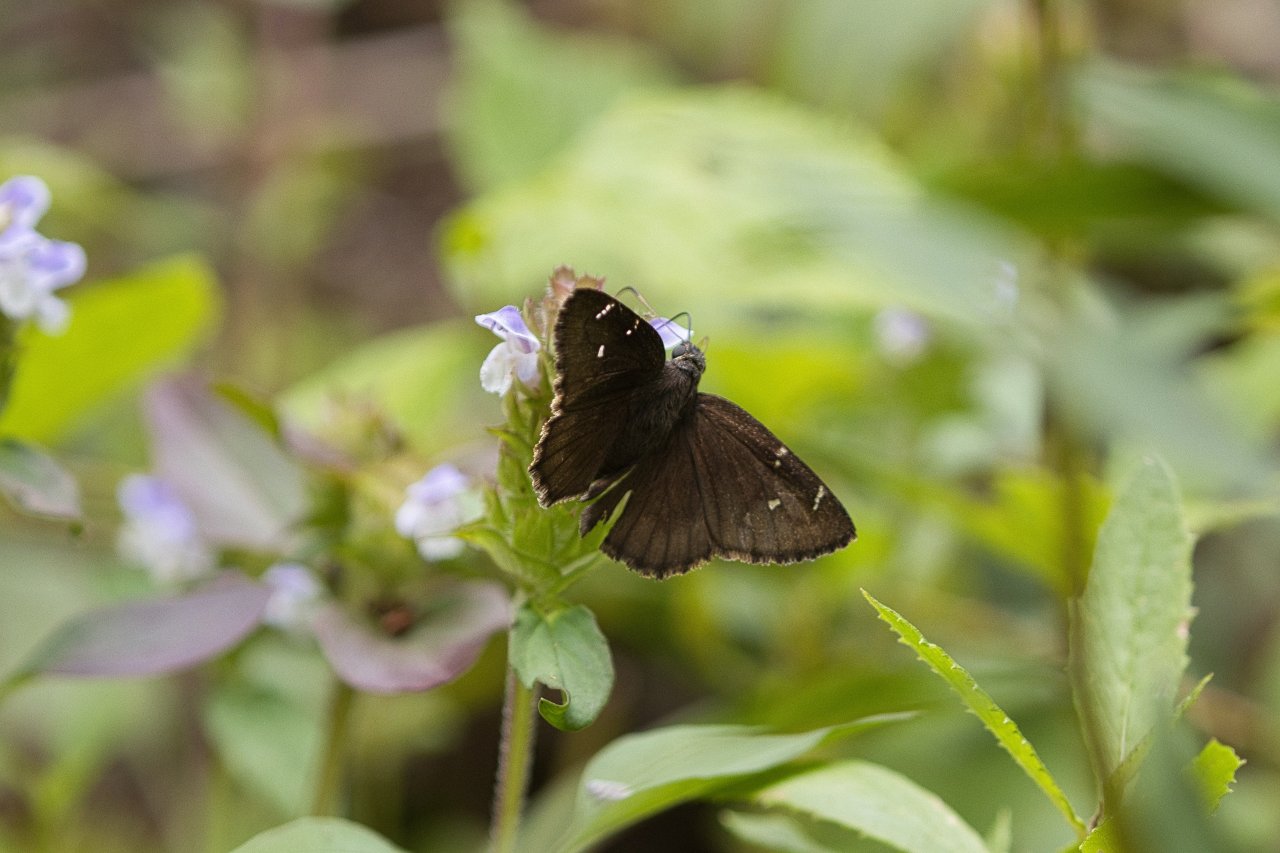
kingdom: Animalia
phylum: Arthropoda
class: Insecta
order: Lepidoptera
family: Hesperiidae
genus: Thorybes
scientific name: Thorybes
